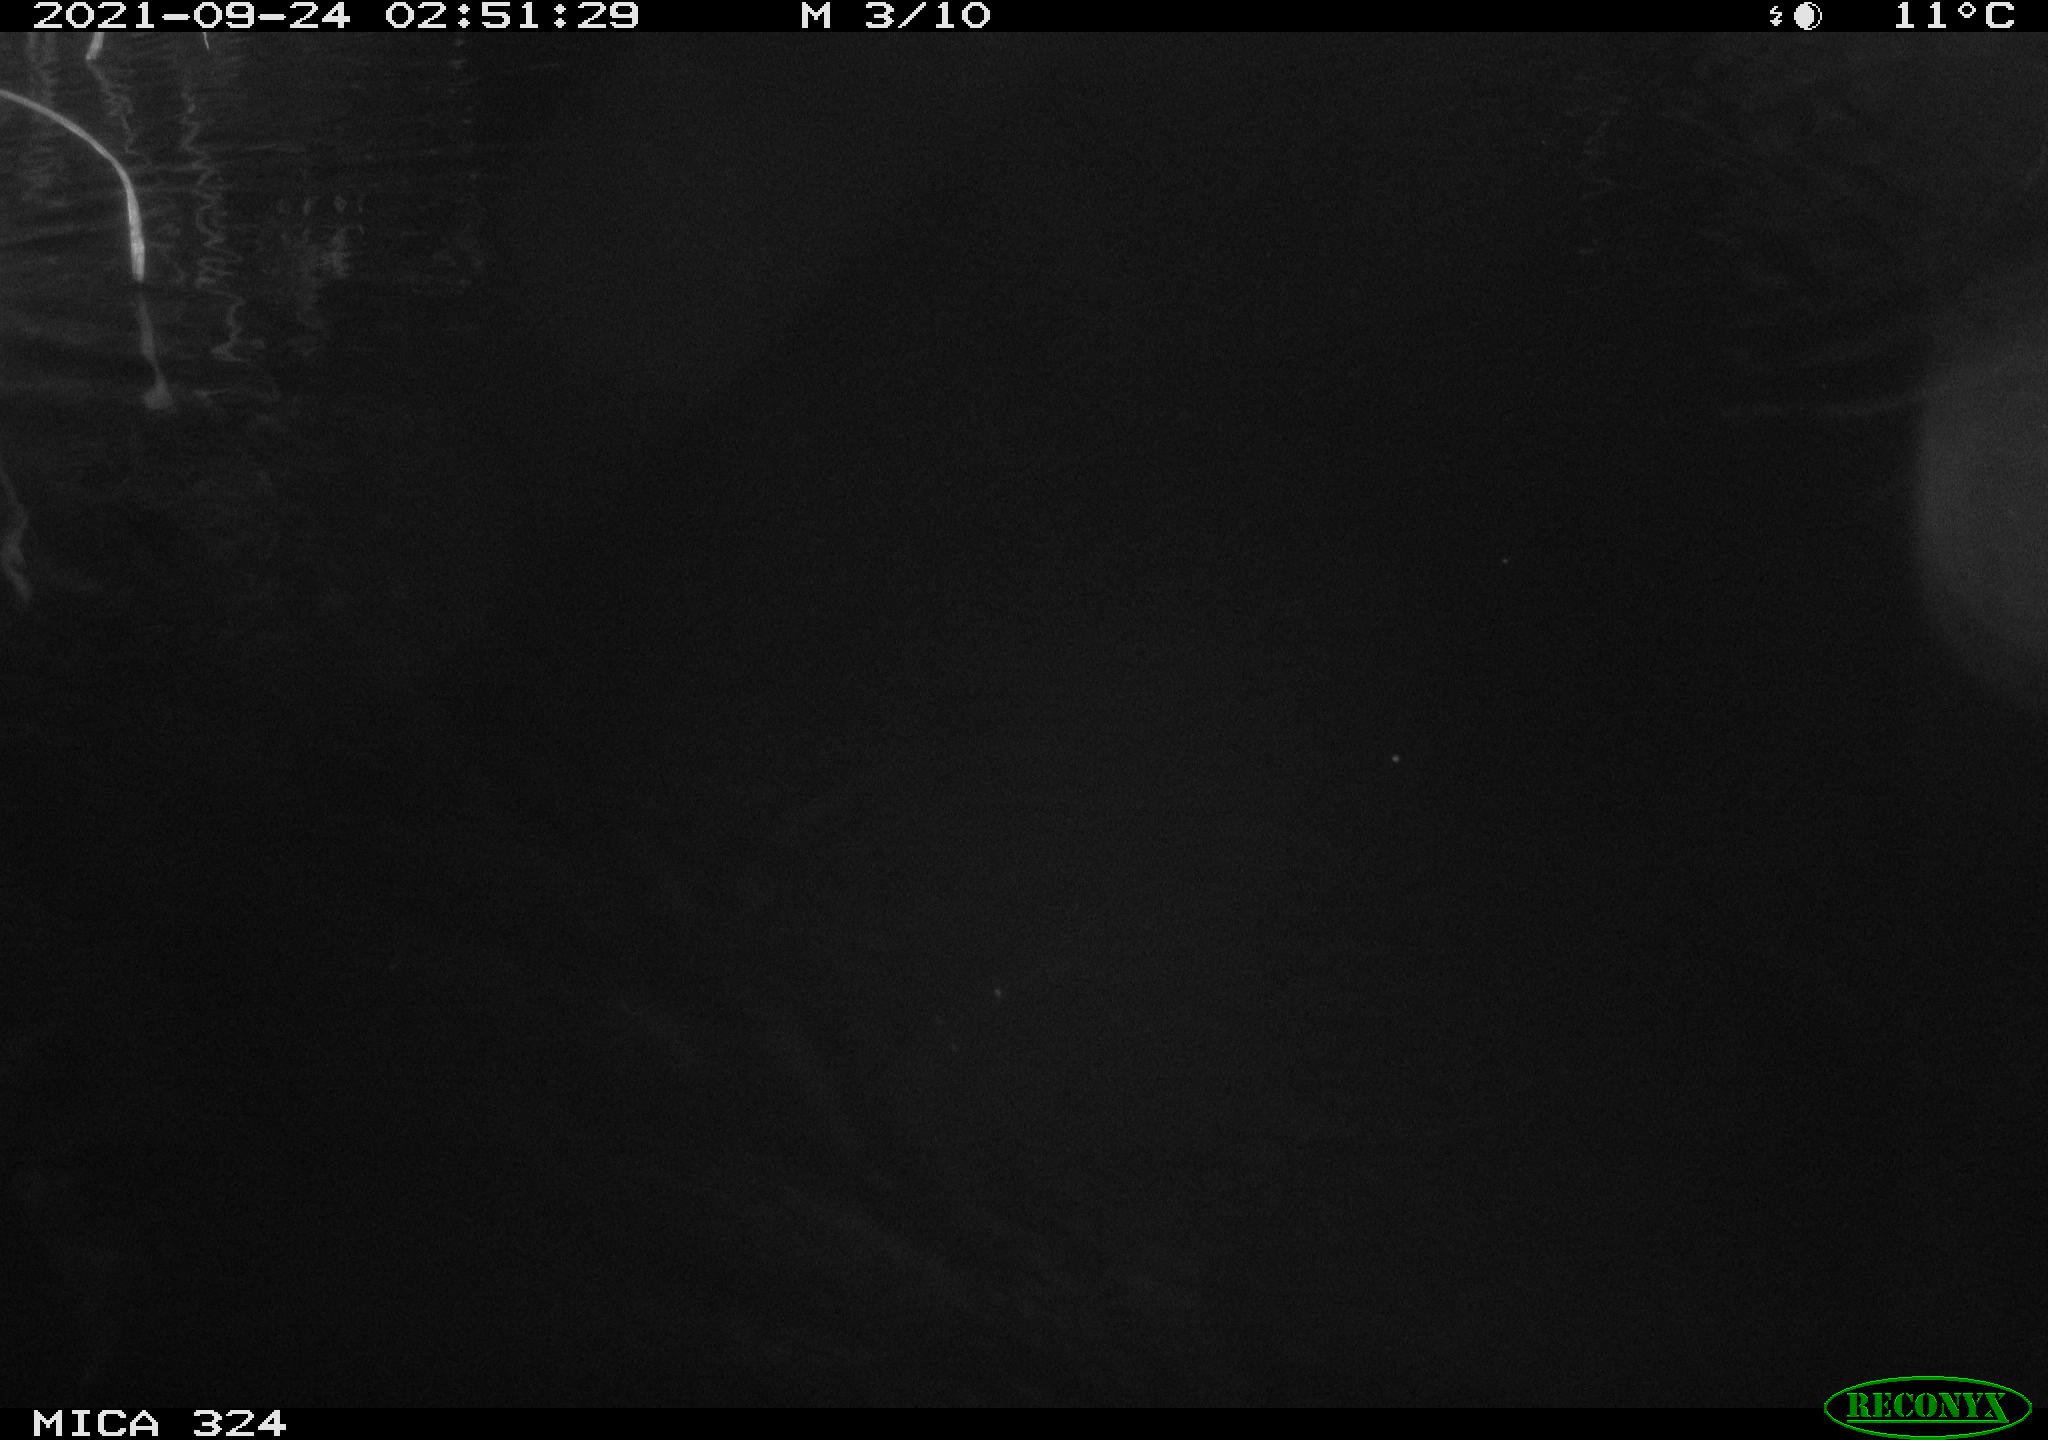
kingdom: Animalia
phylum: Chordata
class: Mammalia
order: Rodentia
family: Cricetidae
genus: Ondatra
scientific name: Ondatra zibethicus
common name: Muskrat
